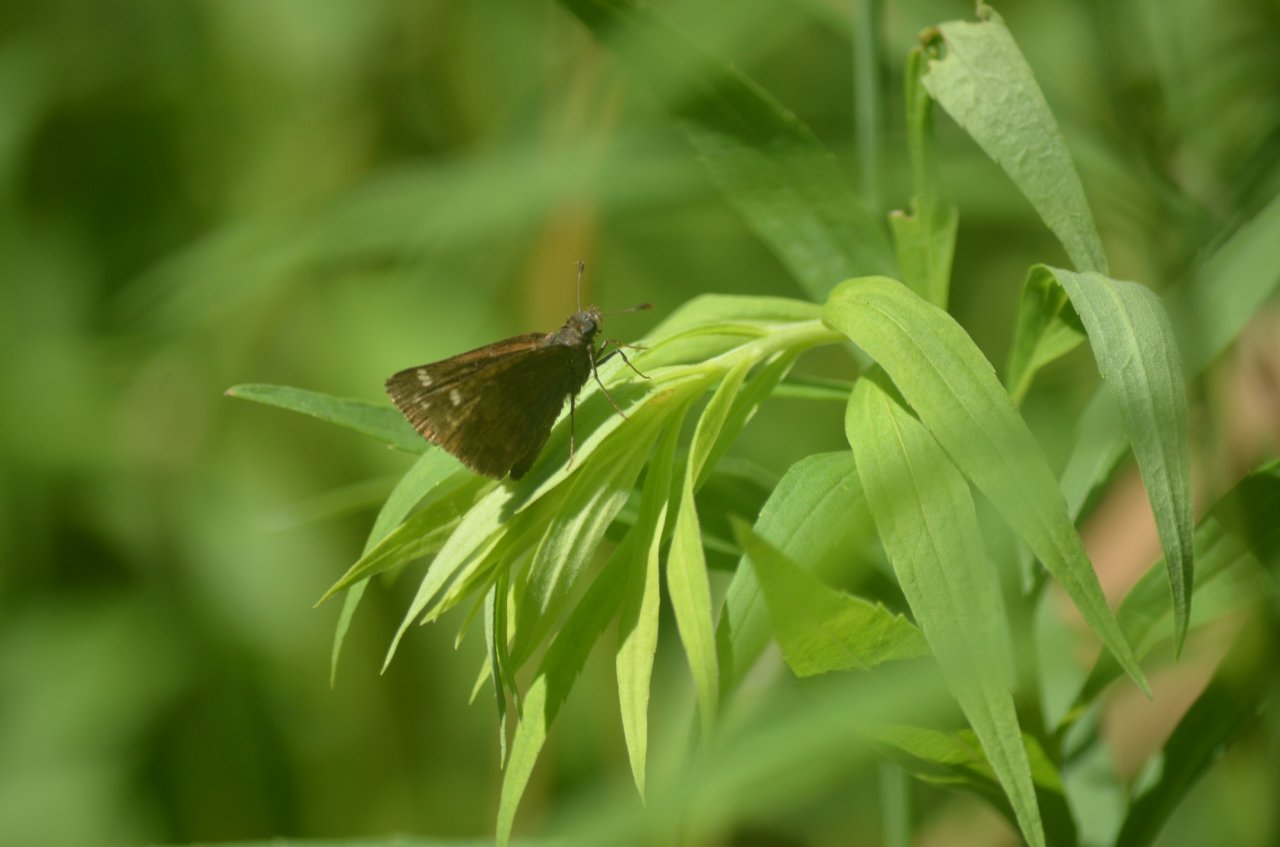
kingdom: Animalia
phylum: Arthropoda
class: Insecta
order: Lepidoptera
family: Hesperiidae
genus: Polites
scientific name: Polites themistocles
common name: Tawny-edged Skipper
